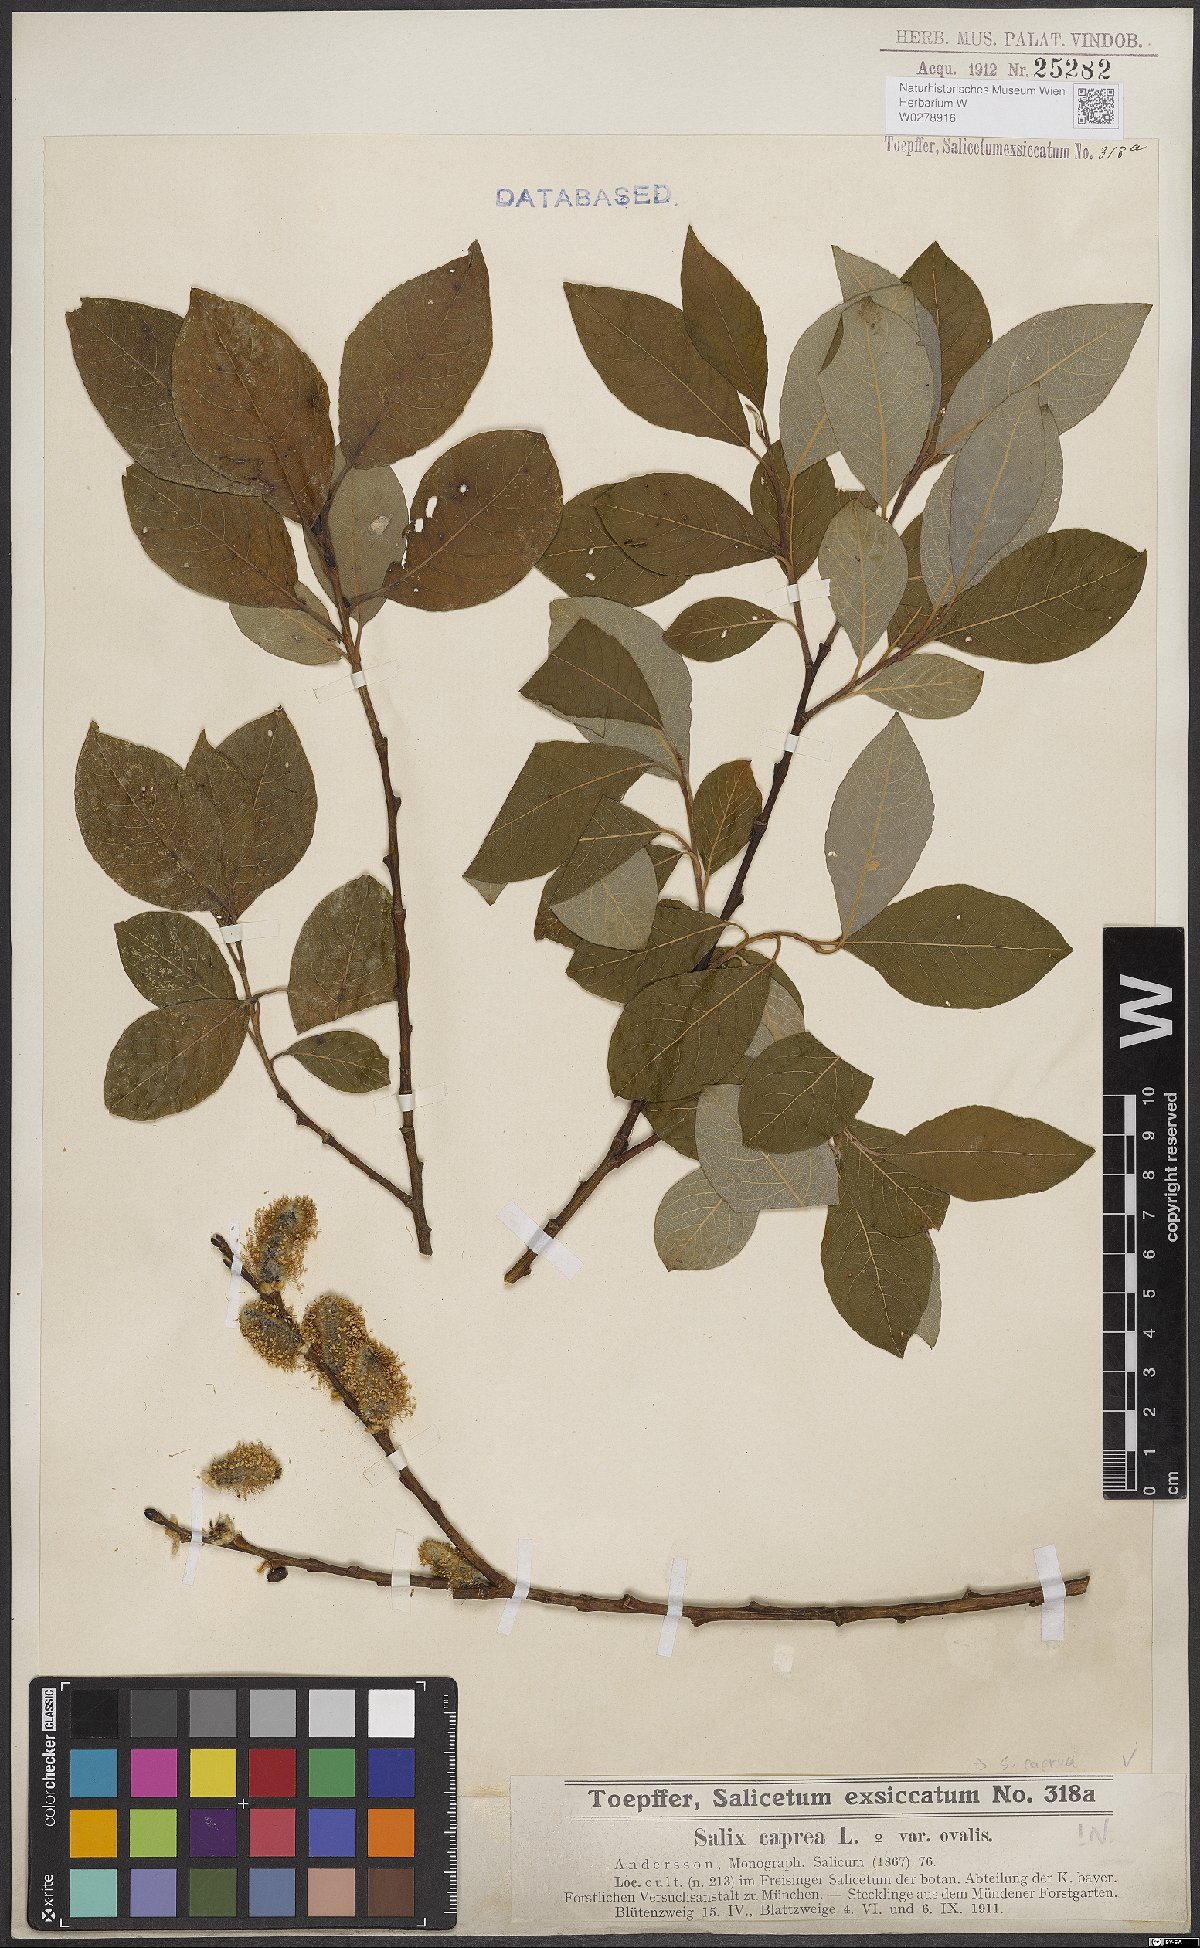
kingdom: Plantae
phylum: Tracheophyta
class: Magnoliopsida
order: Malpighiales
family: Salicaceae
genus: Salix
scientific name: Salix caprea
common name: Goat willow
